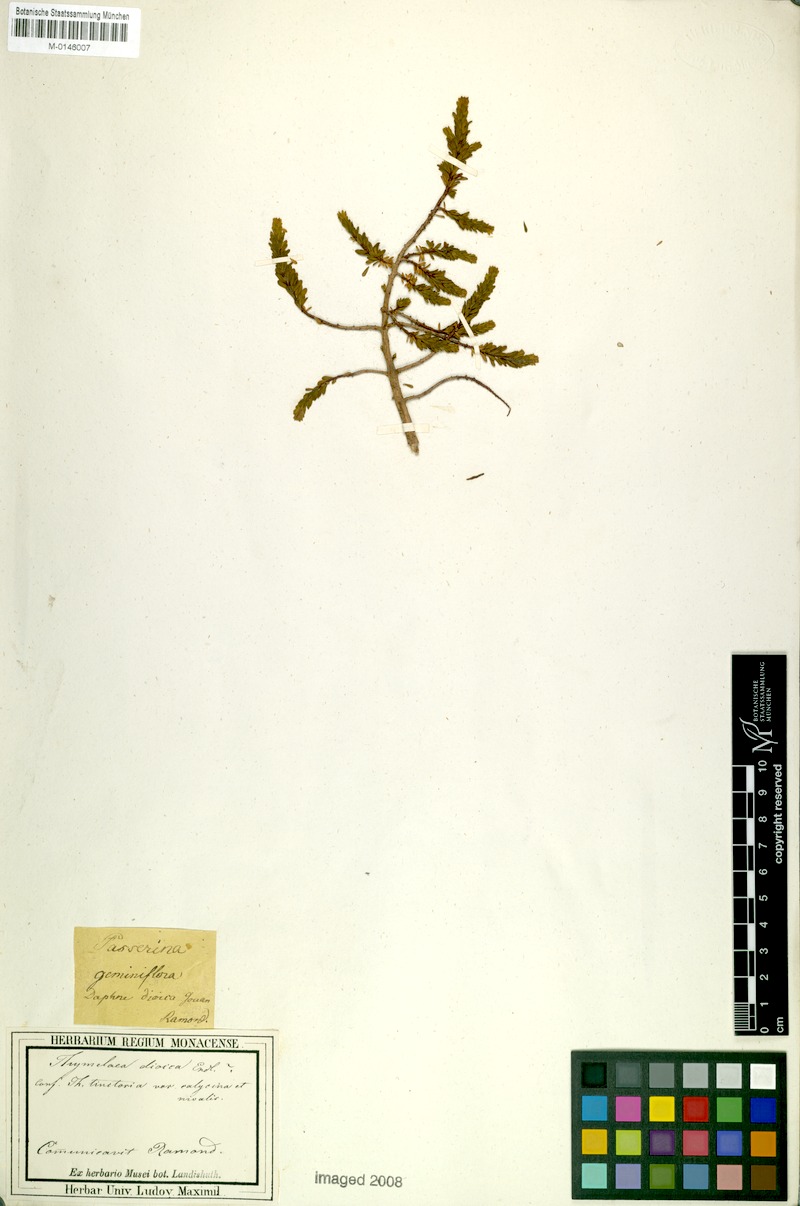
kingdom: Plantae
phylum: Tracheophyta
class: Magnoliopsida
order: Malvales
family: Thymelaeaceae
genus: Thymelaea
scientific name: Thymelaea dioica
